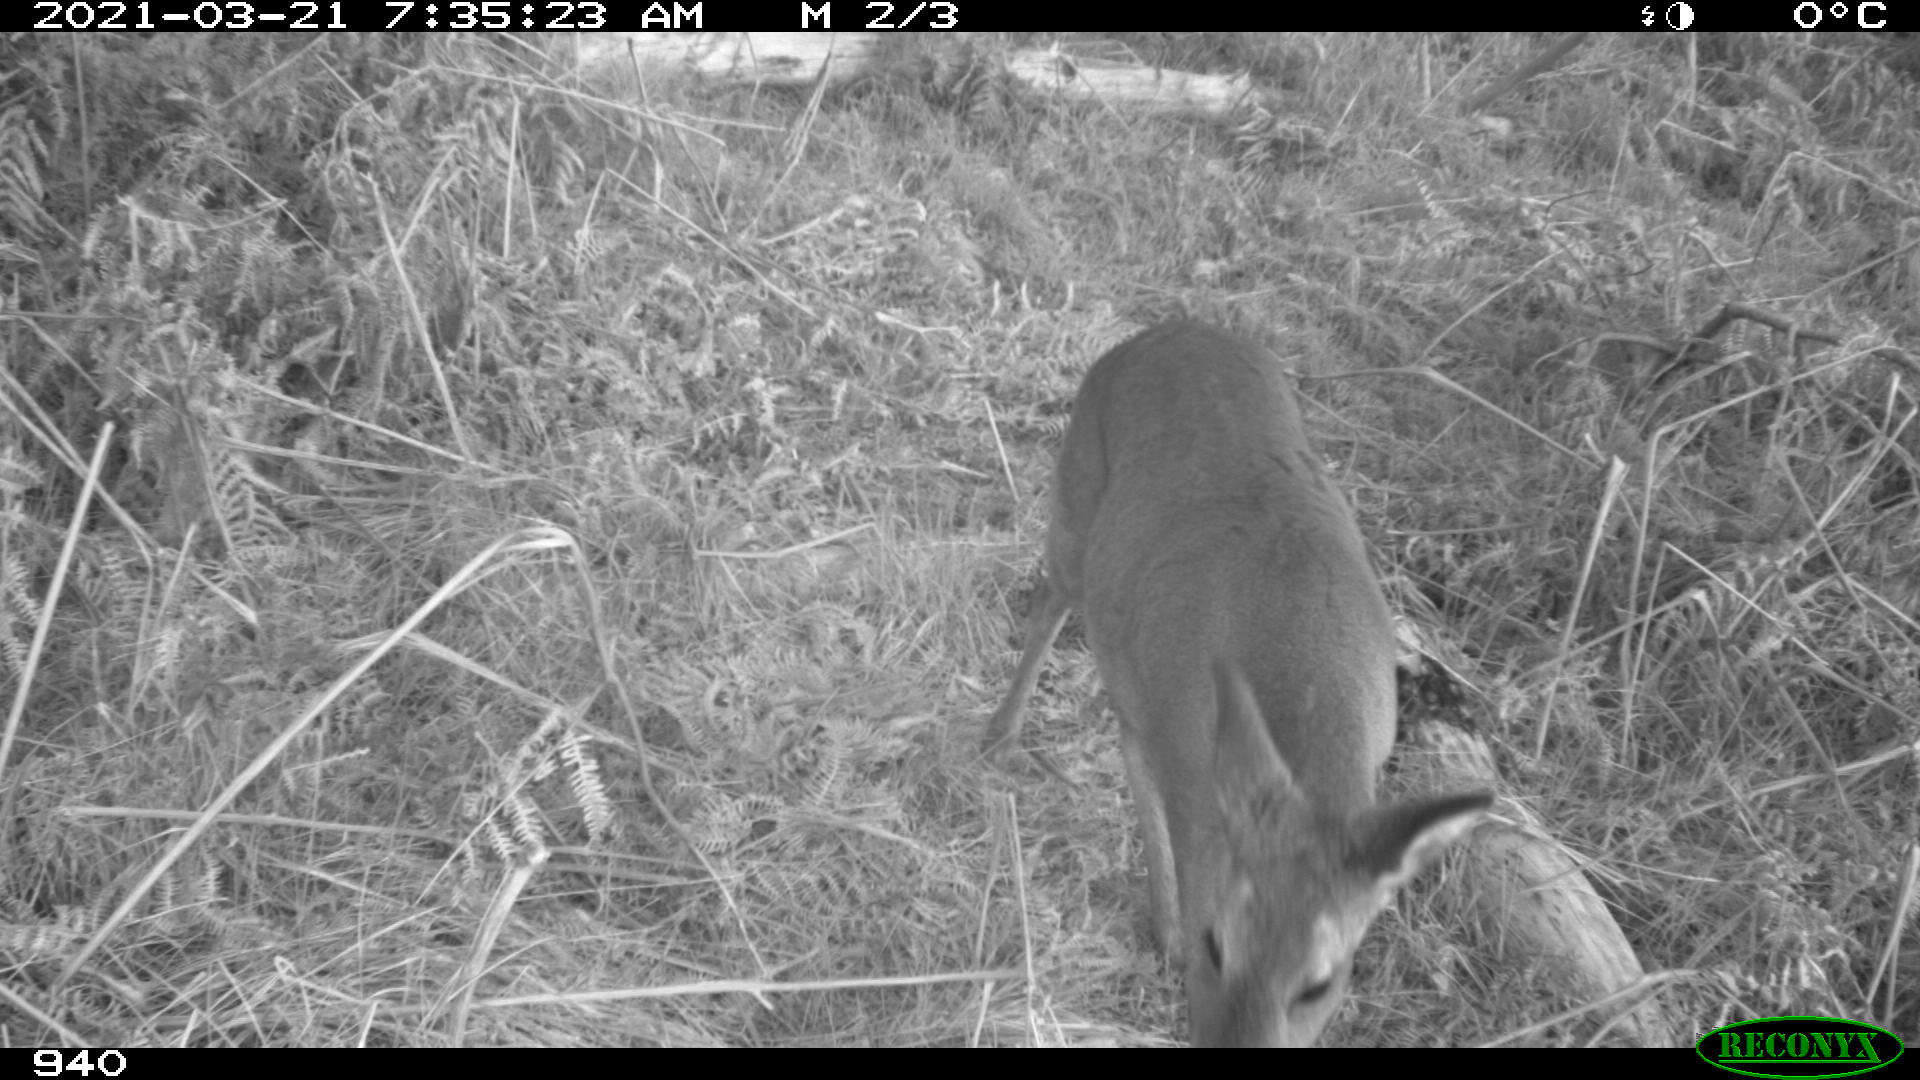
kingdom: Animalia
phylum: Chordata
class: Mammalia
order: Artiodactyla
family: Cervidae
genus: Capreolus
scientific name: Capreolus capreolus
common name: Western roe deer
